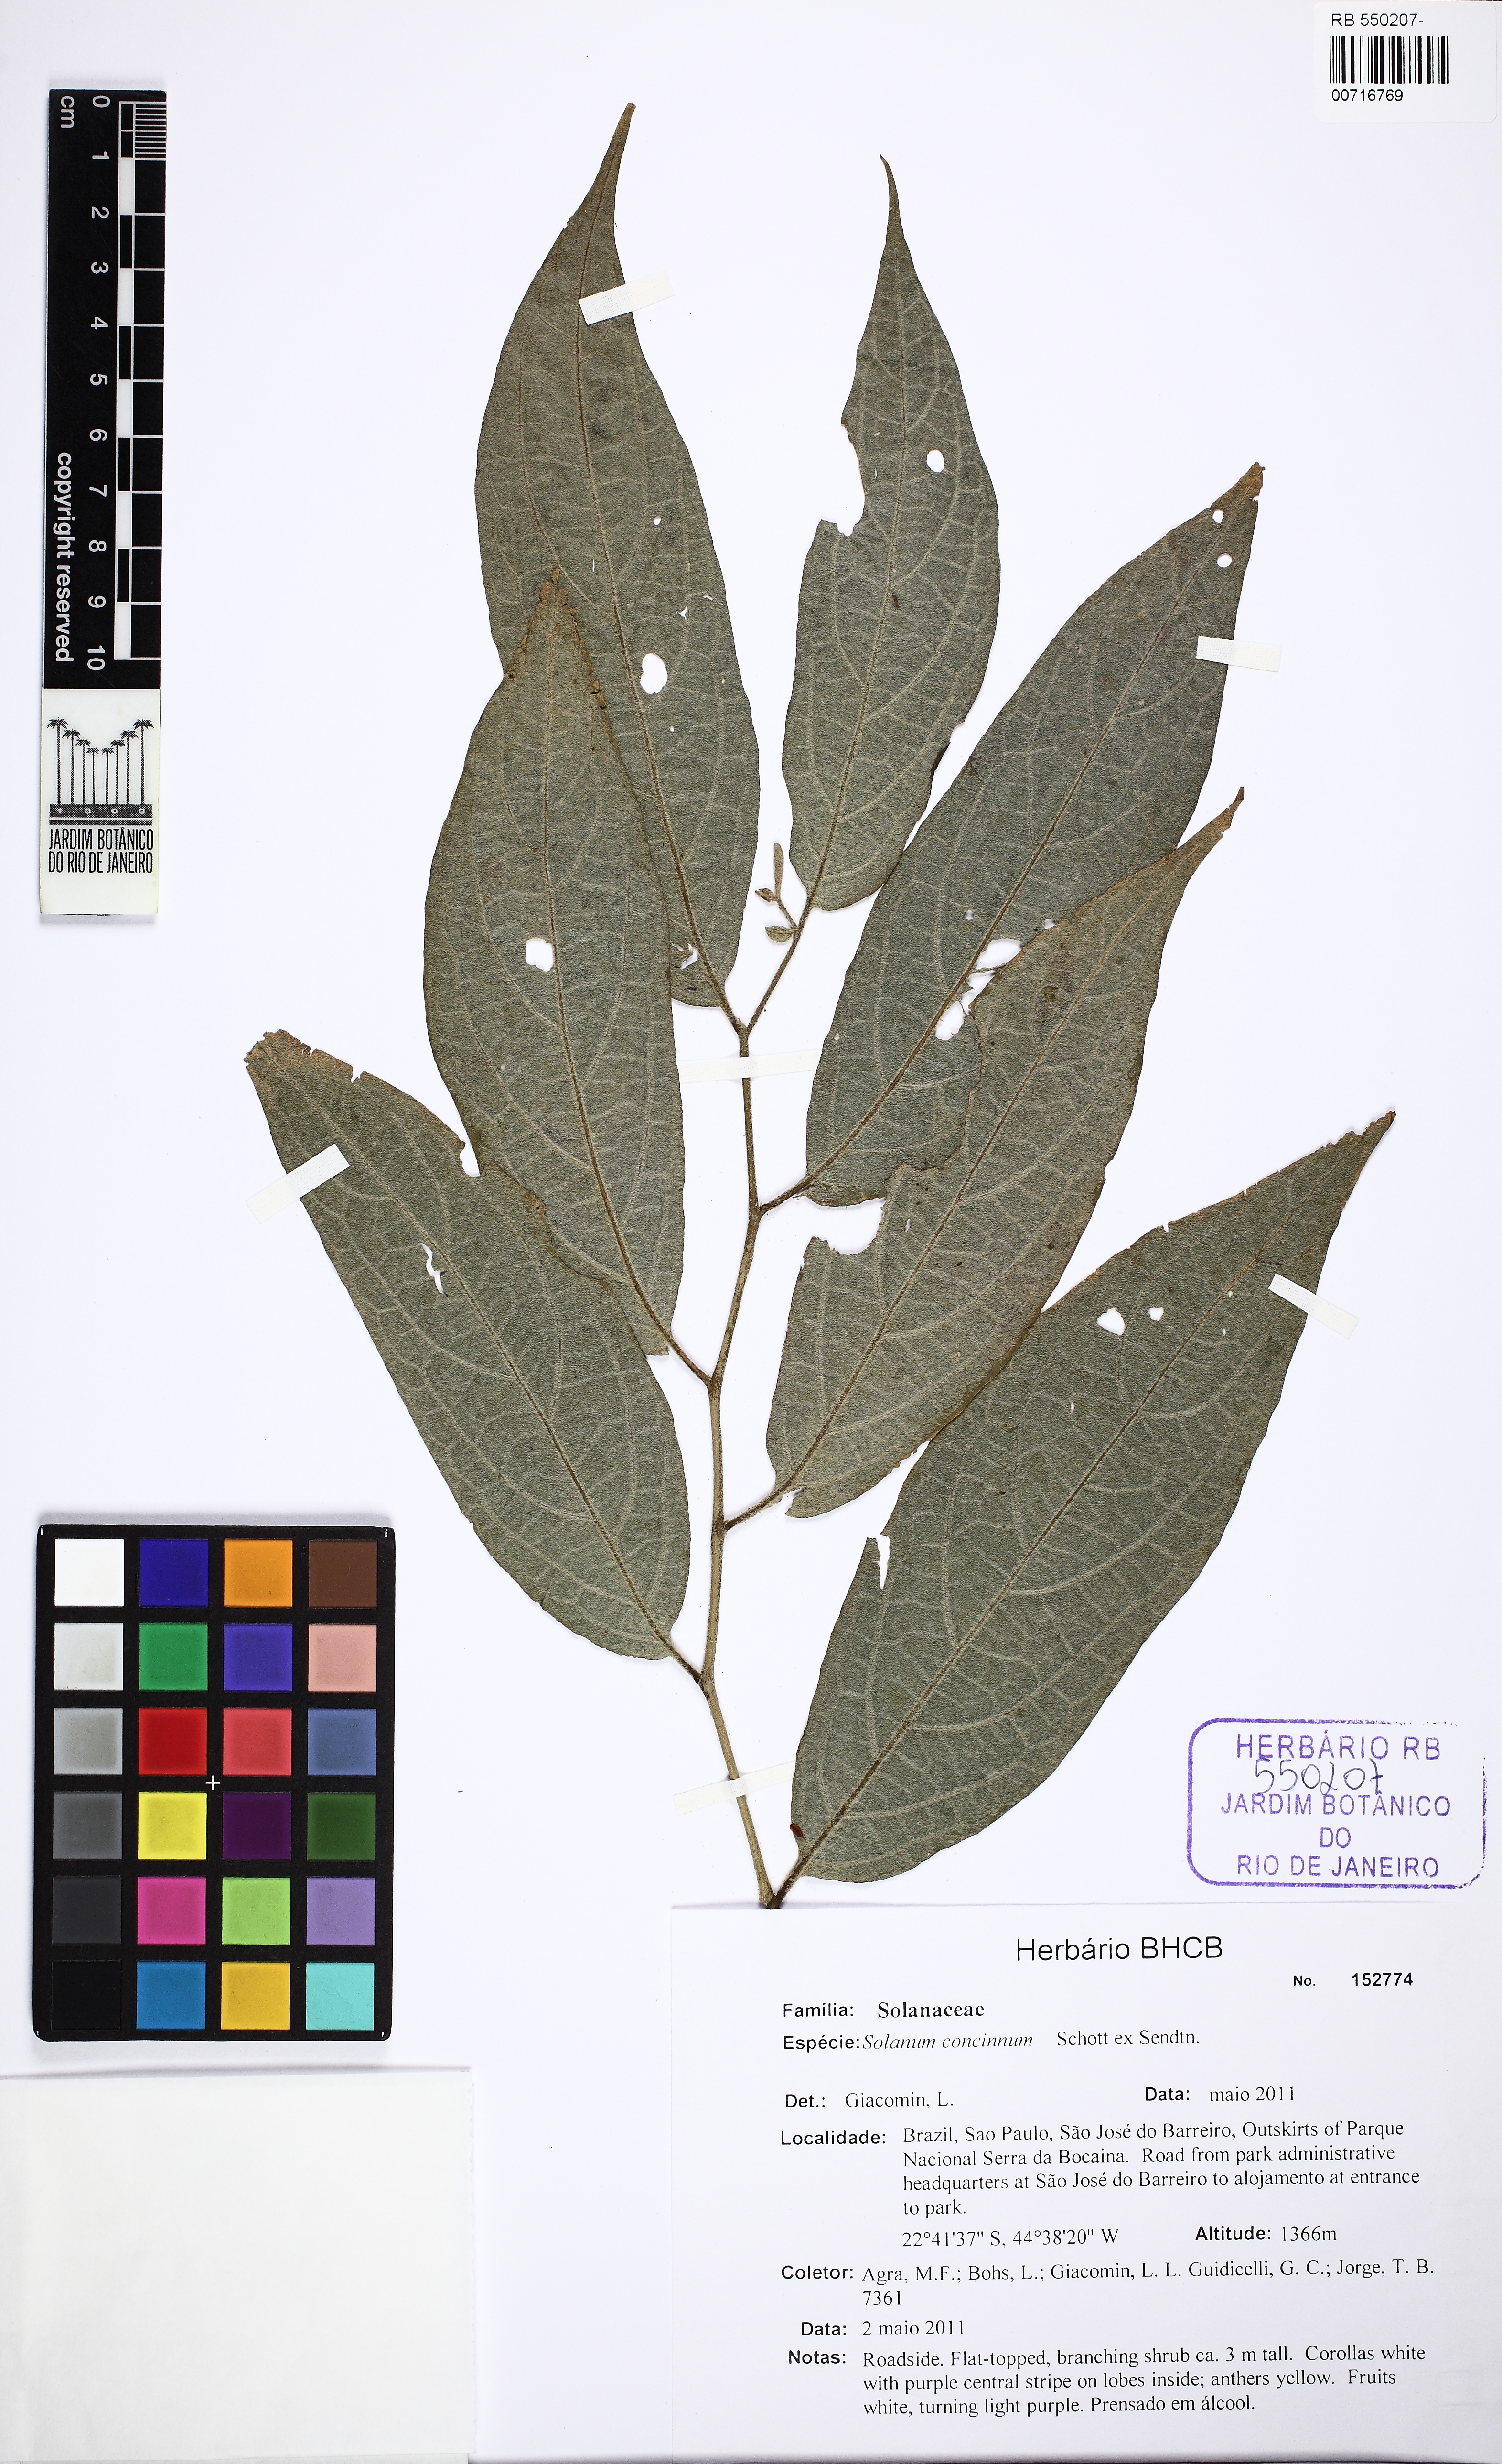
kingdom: Plantae
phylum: Tracheophyta
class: Magnoliopsida
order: Solanales
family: Solanaceae
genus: Solanum
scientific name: Solanum concinnum
